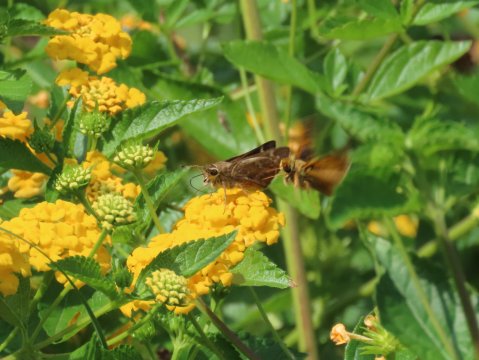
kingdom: Animalia
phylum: Arthropoda
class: Insecta
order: Lepidoptera
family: Hesperiidae
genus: Atalopedes
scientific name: Atalopedes campestris
